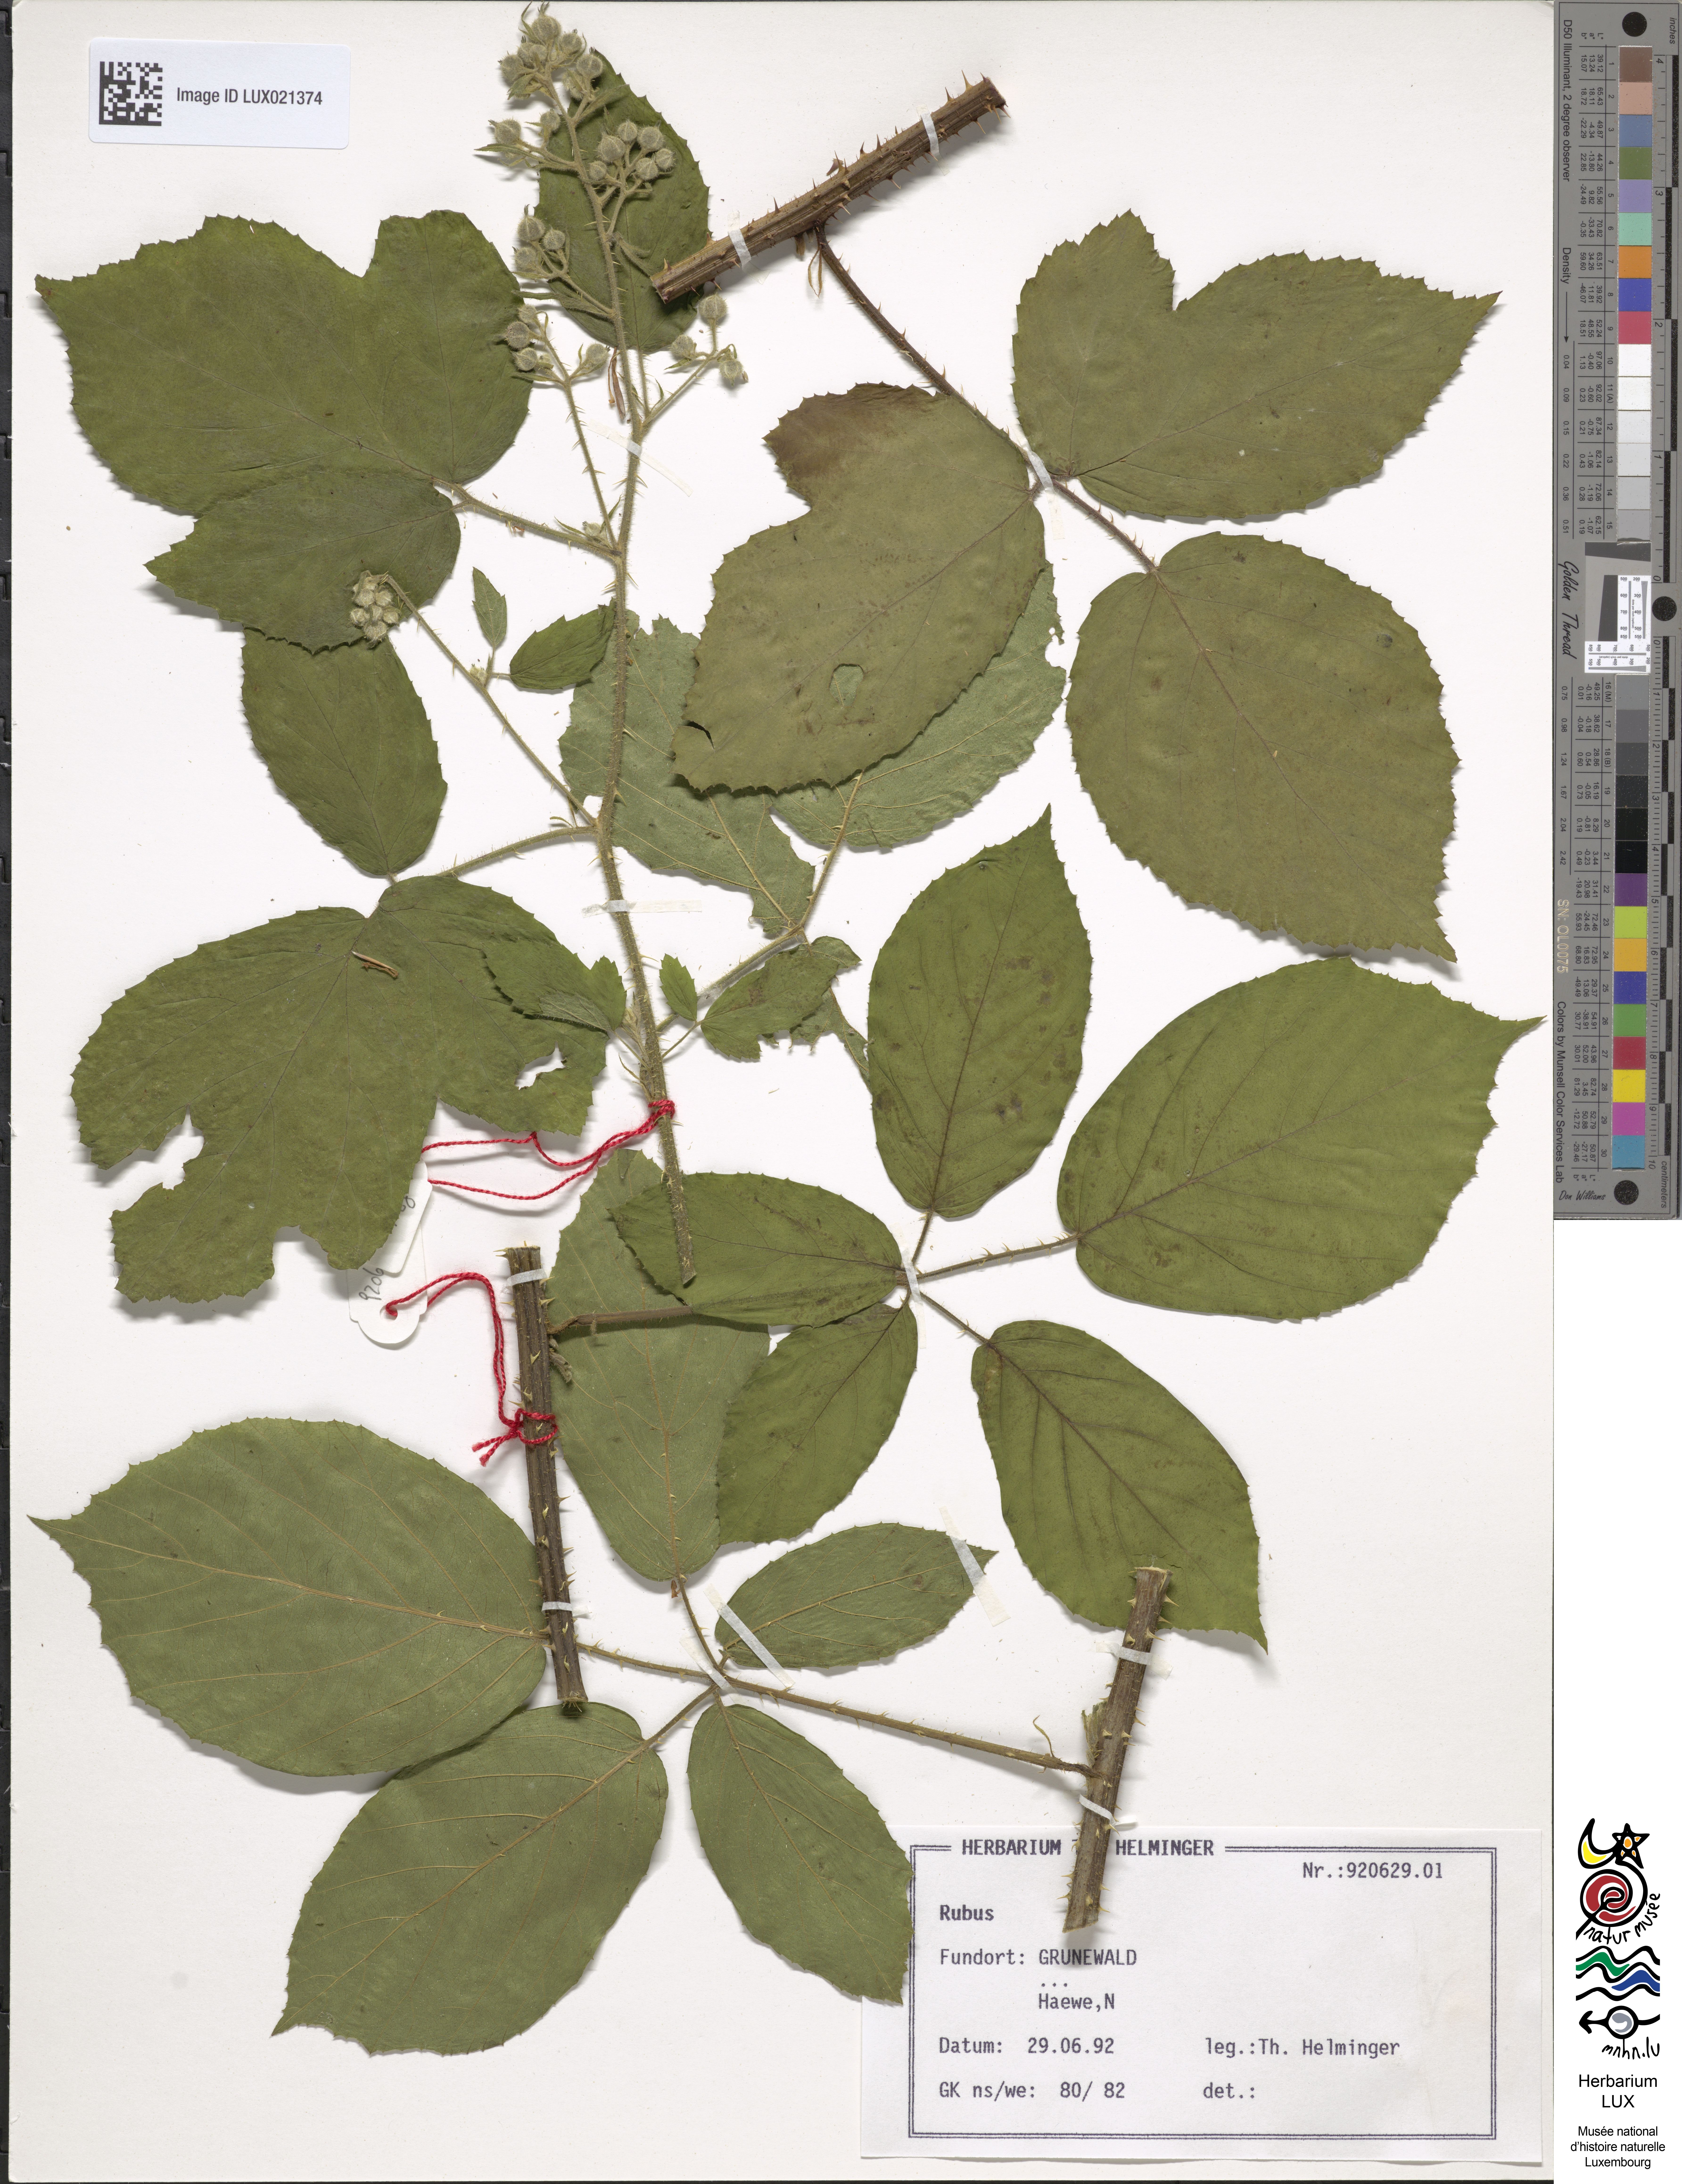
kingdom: Plantae
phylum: Tracheophyta
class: Magnoliopsida
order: Rosales
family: Rosaceae
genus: Rubus
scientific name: Rubus
